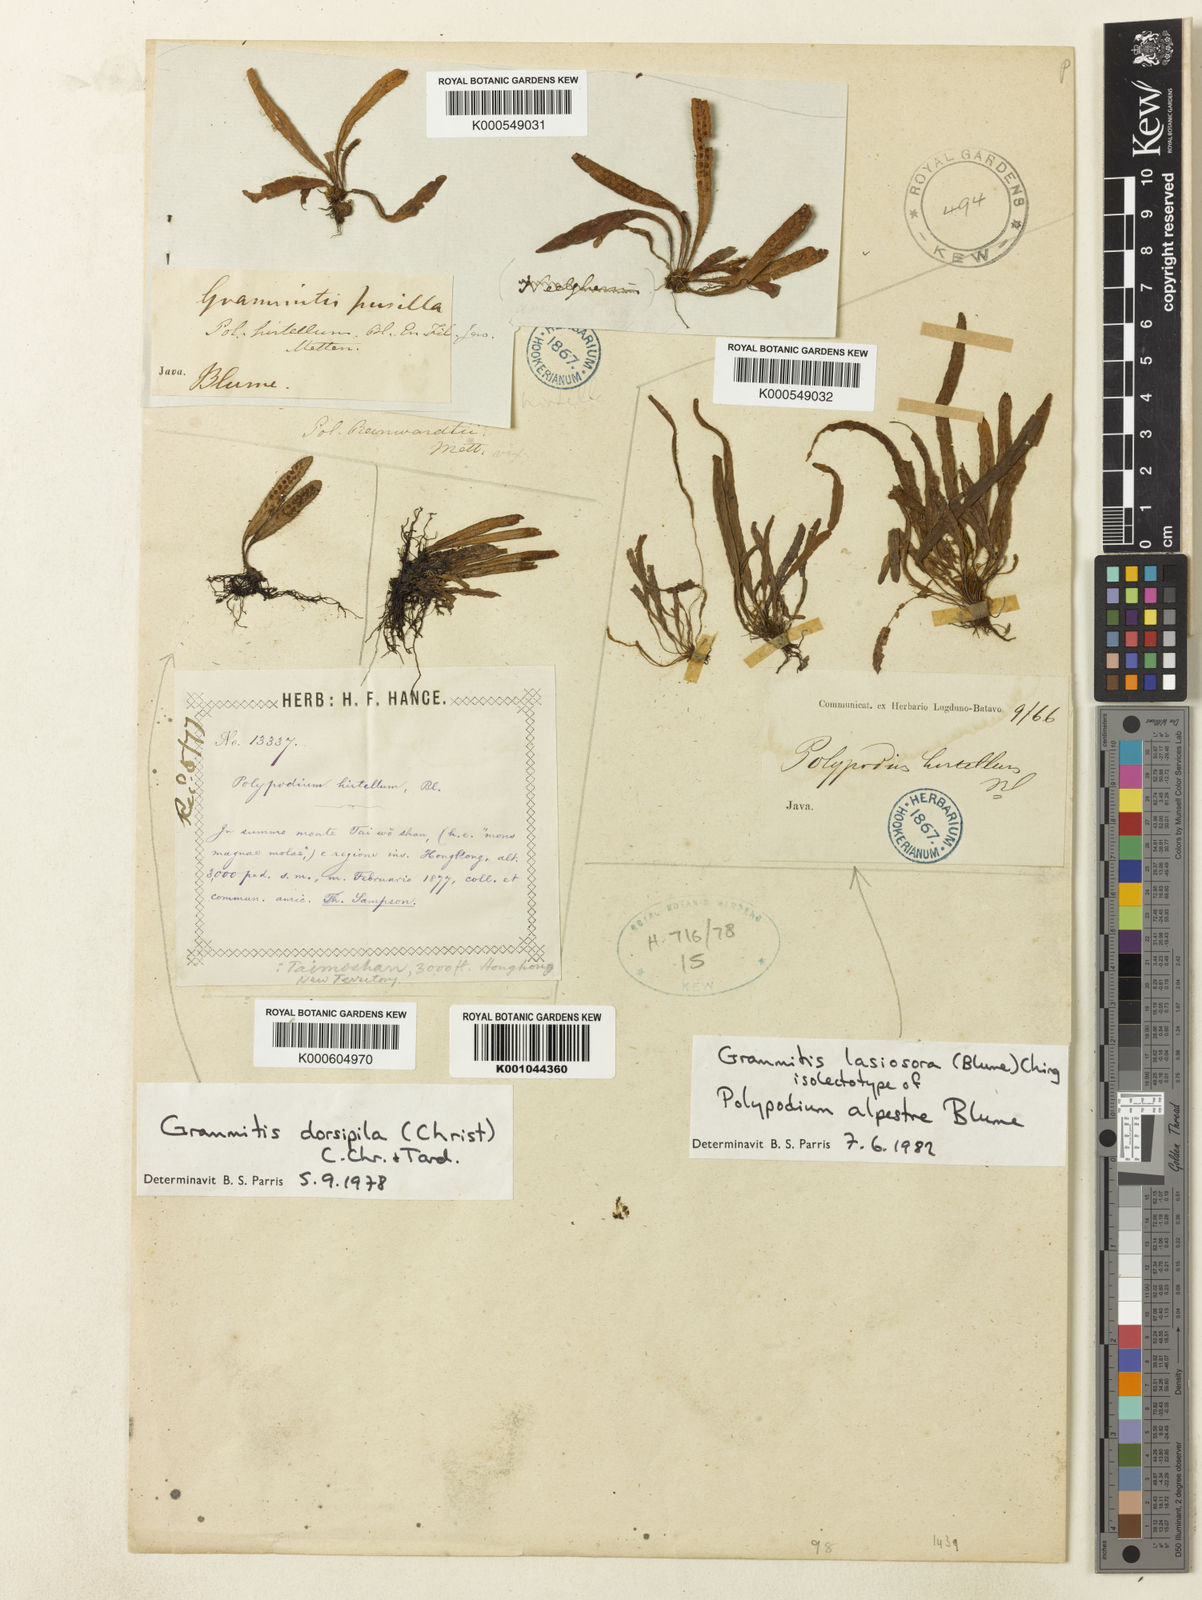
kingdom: Plantae
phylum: Tracheophyta
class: Polypodiopsida
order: Polypodiales
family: Polypodiaceae
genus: Oreogrammitis
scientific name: Oreogrammitis hirtella
